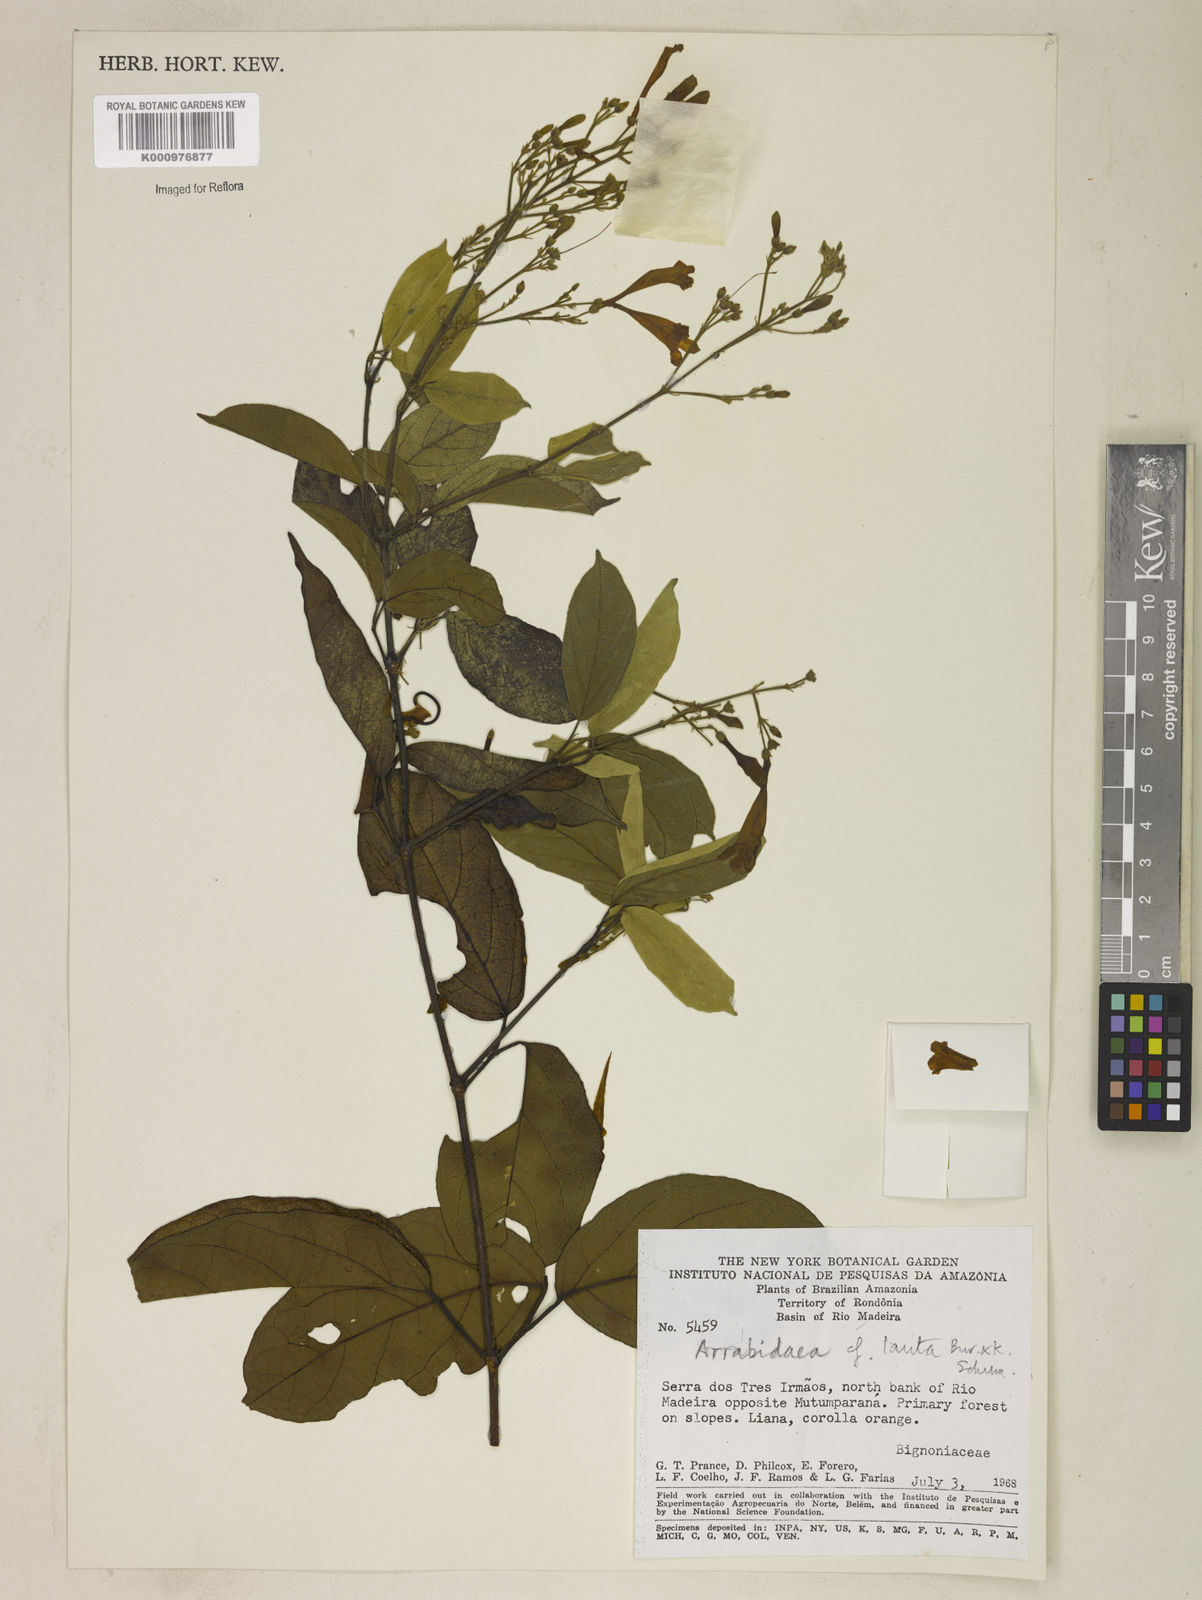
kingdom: Plantae
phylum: Tracheophyta
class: Magnoliopsida
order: Lamiales
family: Bignoniaceae
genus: Fridericia
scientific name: Fridericia lauta
